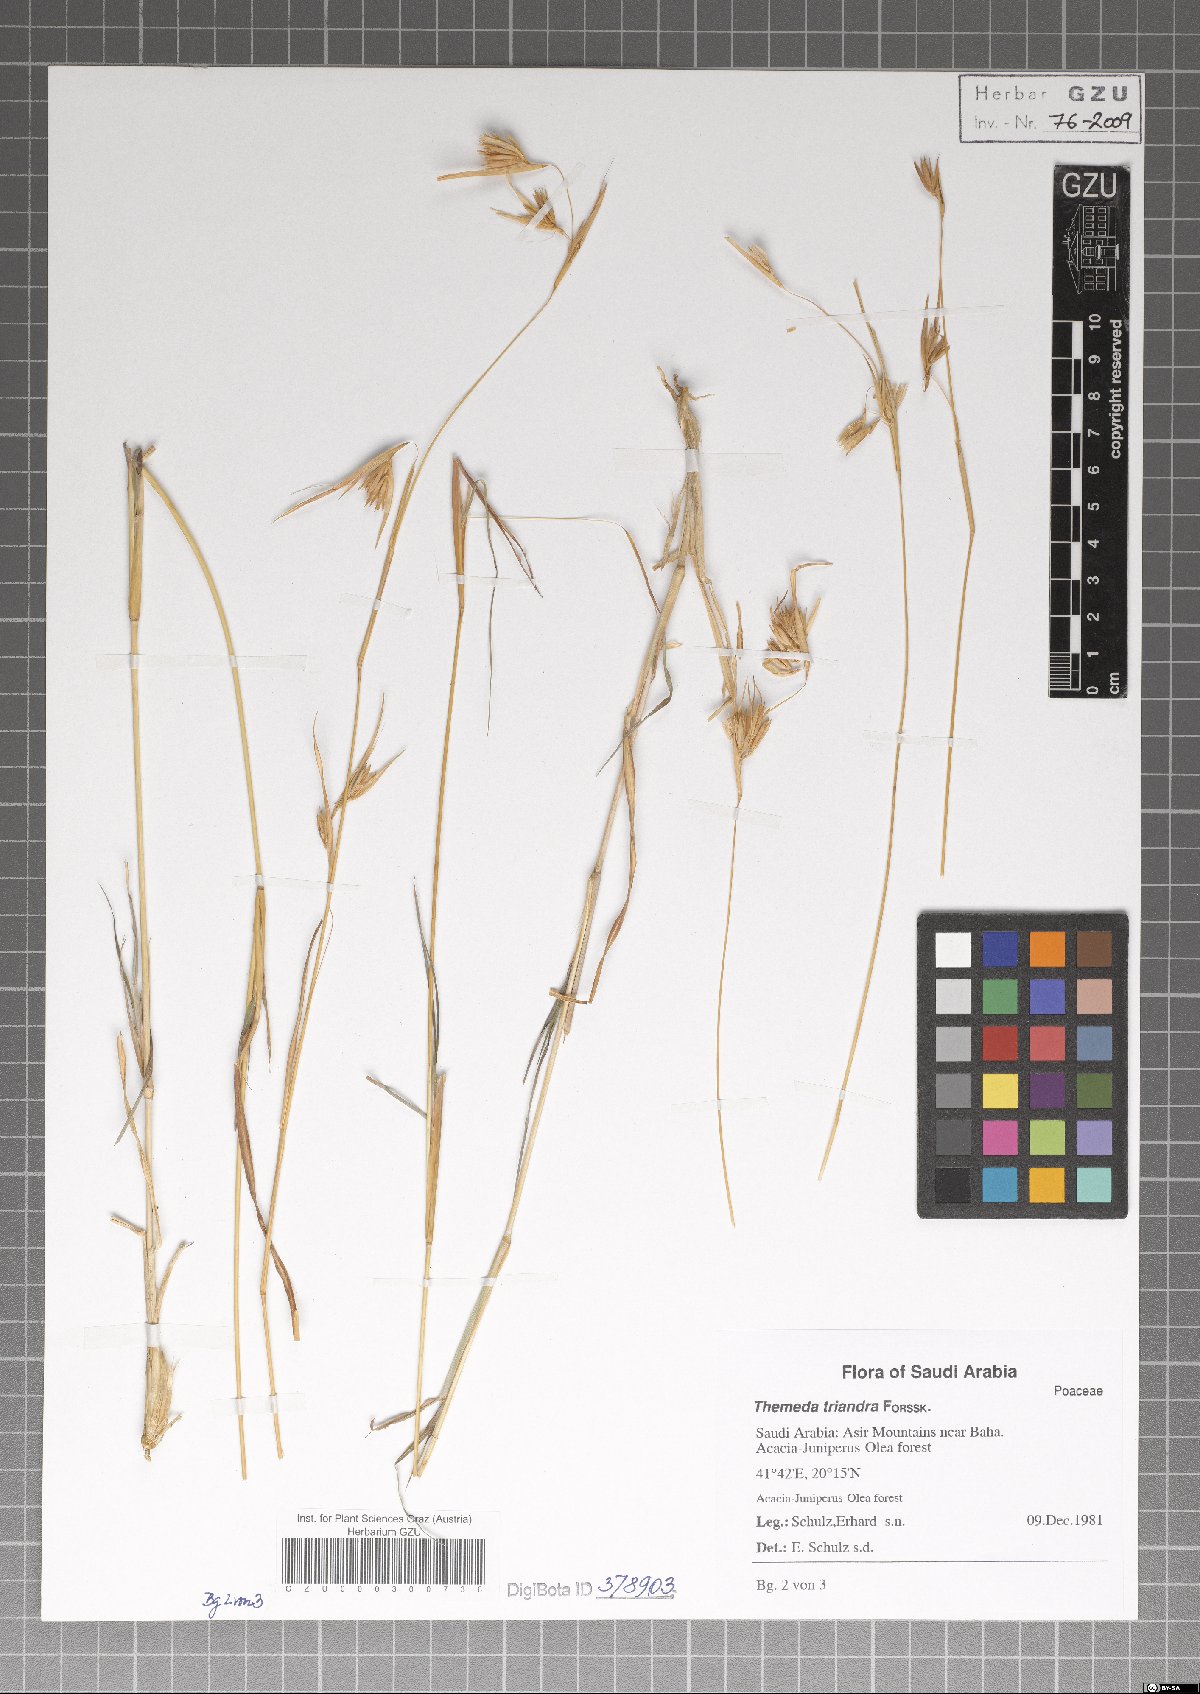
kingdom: Plantae
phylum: Tracheophyta
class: Liliopsida
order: Poales
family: Poaceae
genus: Themeda
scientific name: Themeda triandra
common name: Kangaroo grass
